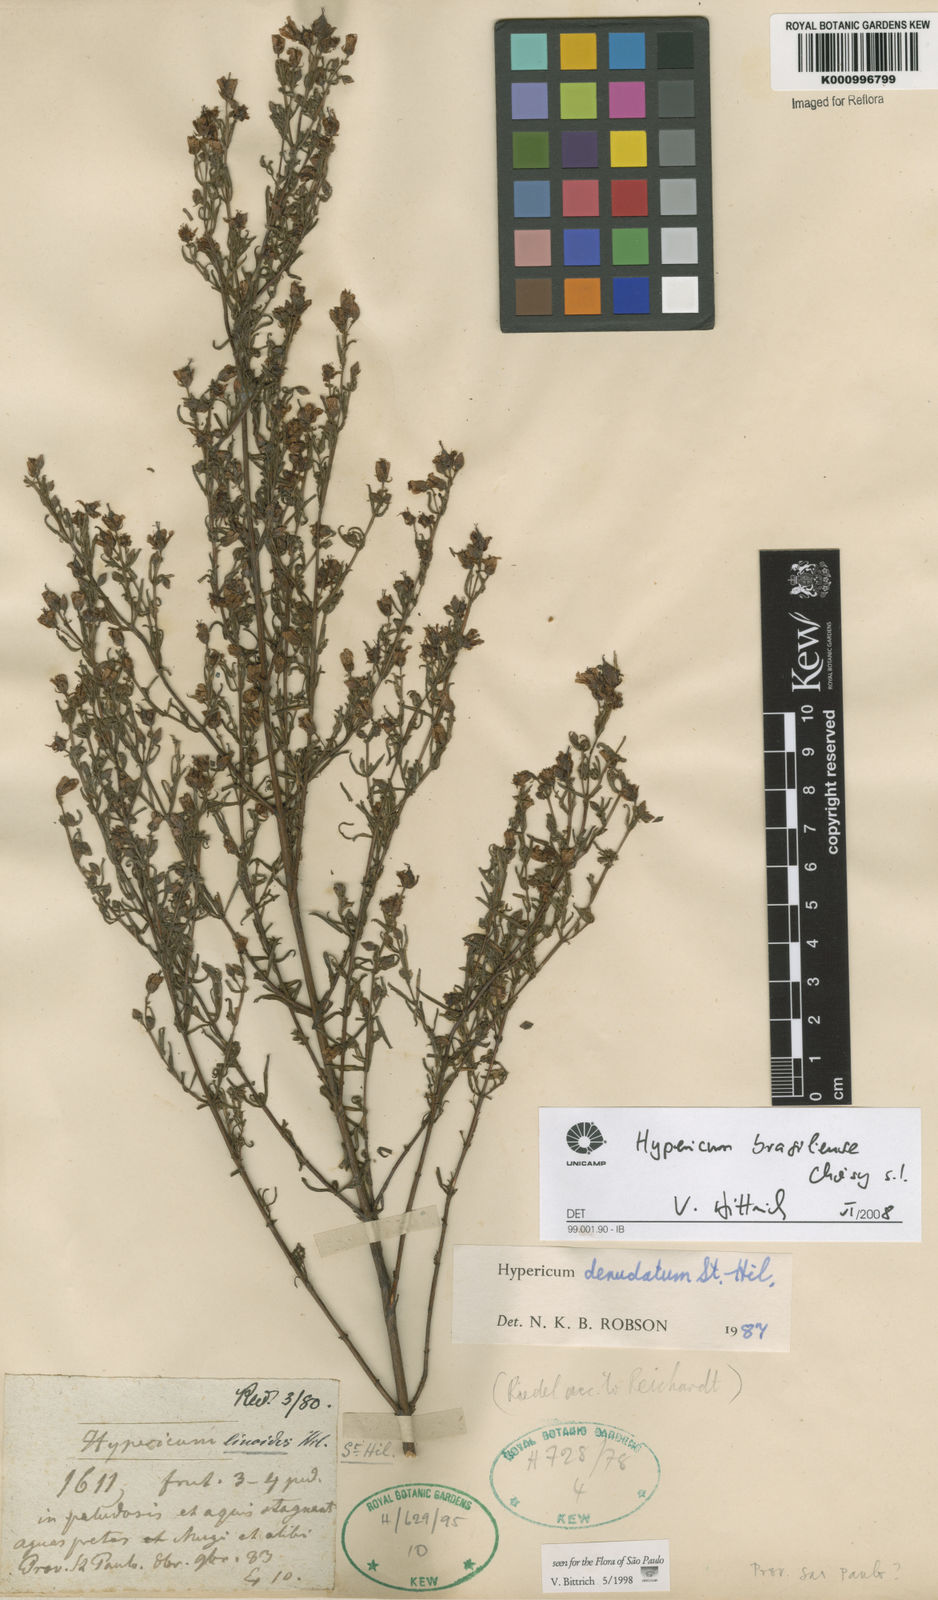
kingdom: Plantae
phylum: Tracheophyta
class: Magnoliopsida
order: Malpighiales
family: Hypericaceae
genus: Hypericum
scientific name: Hypericum brasiliense
